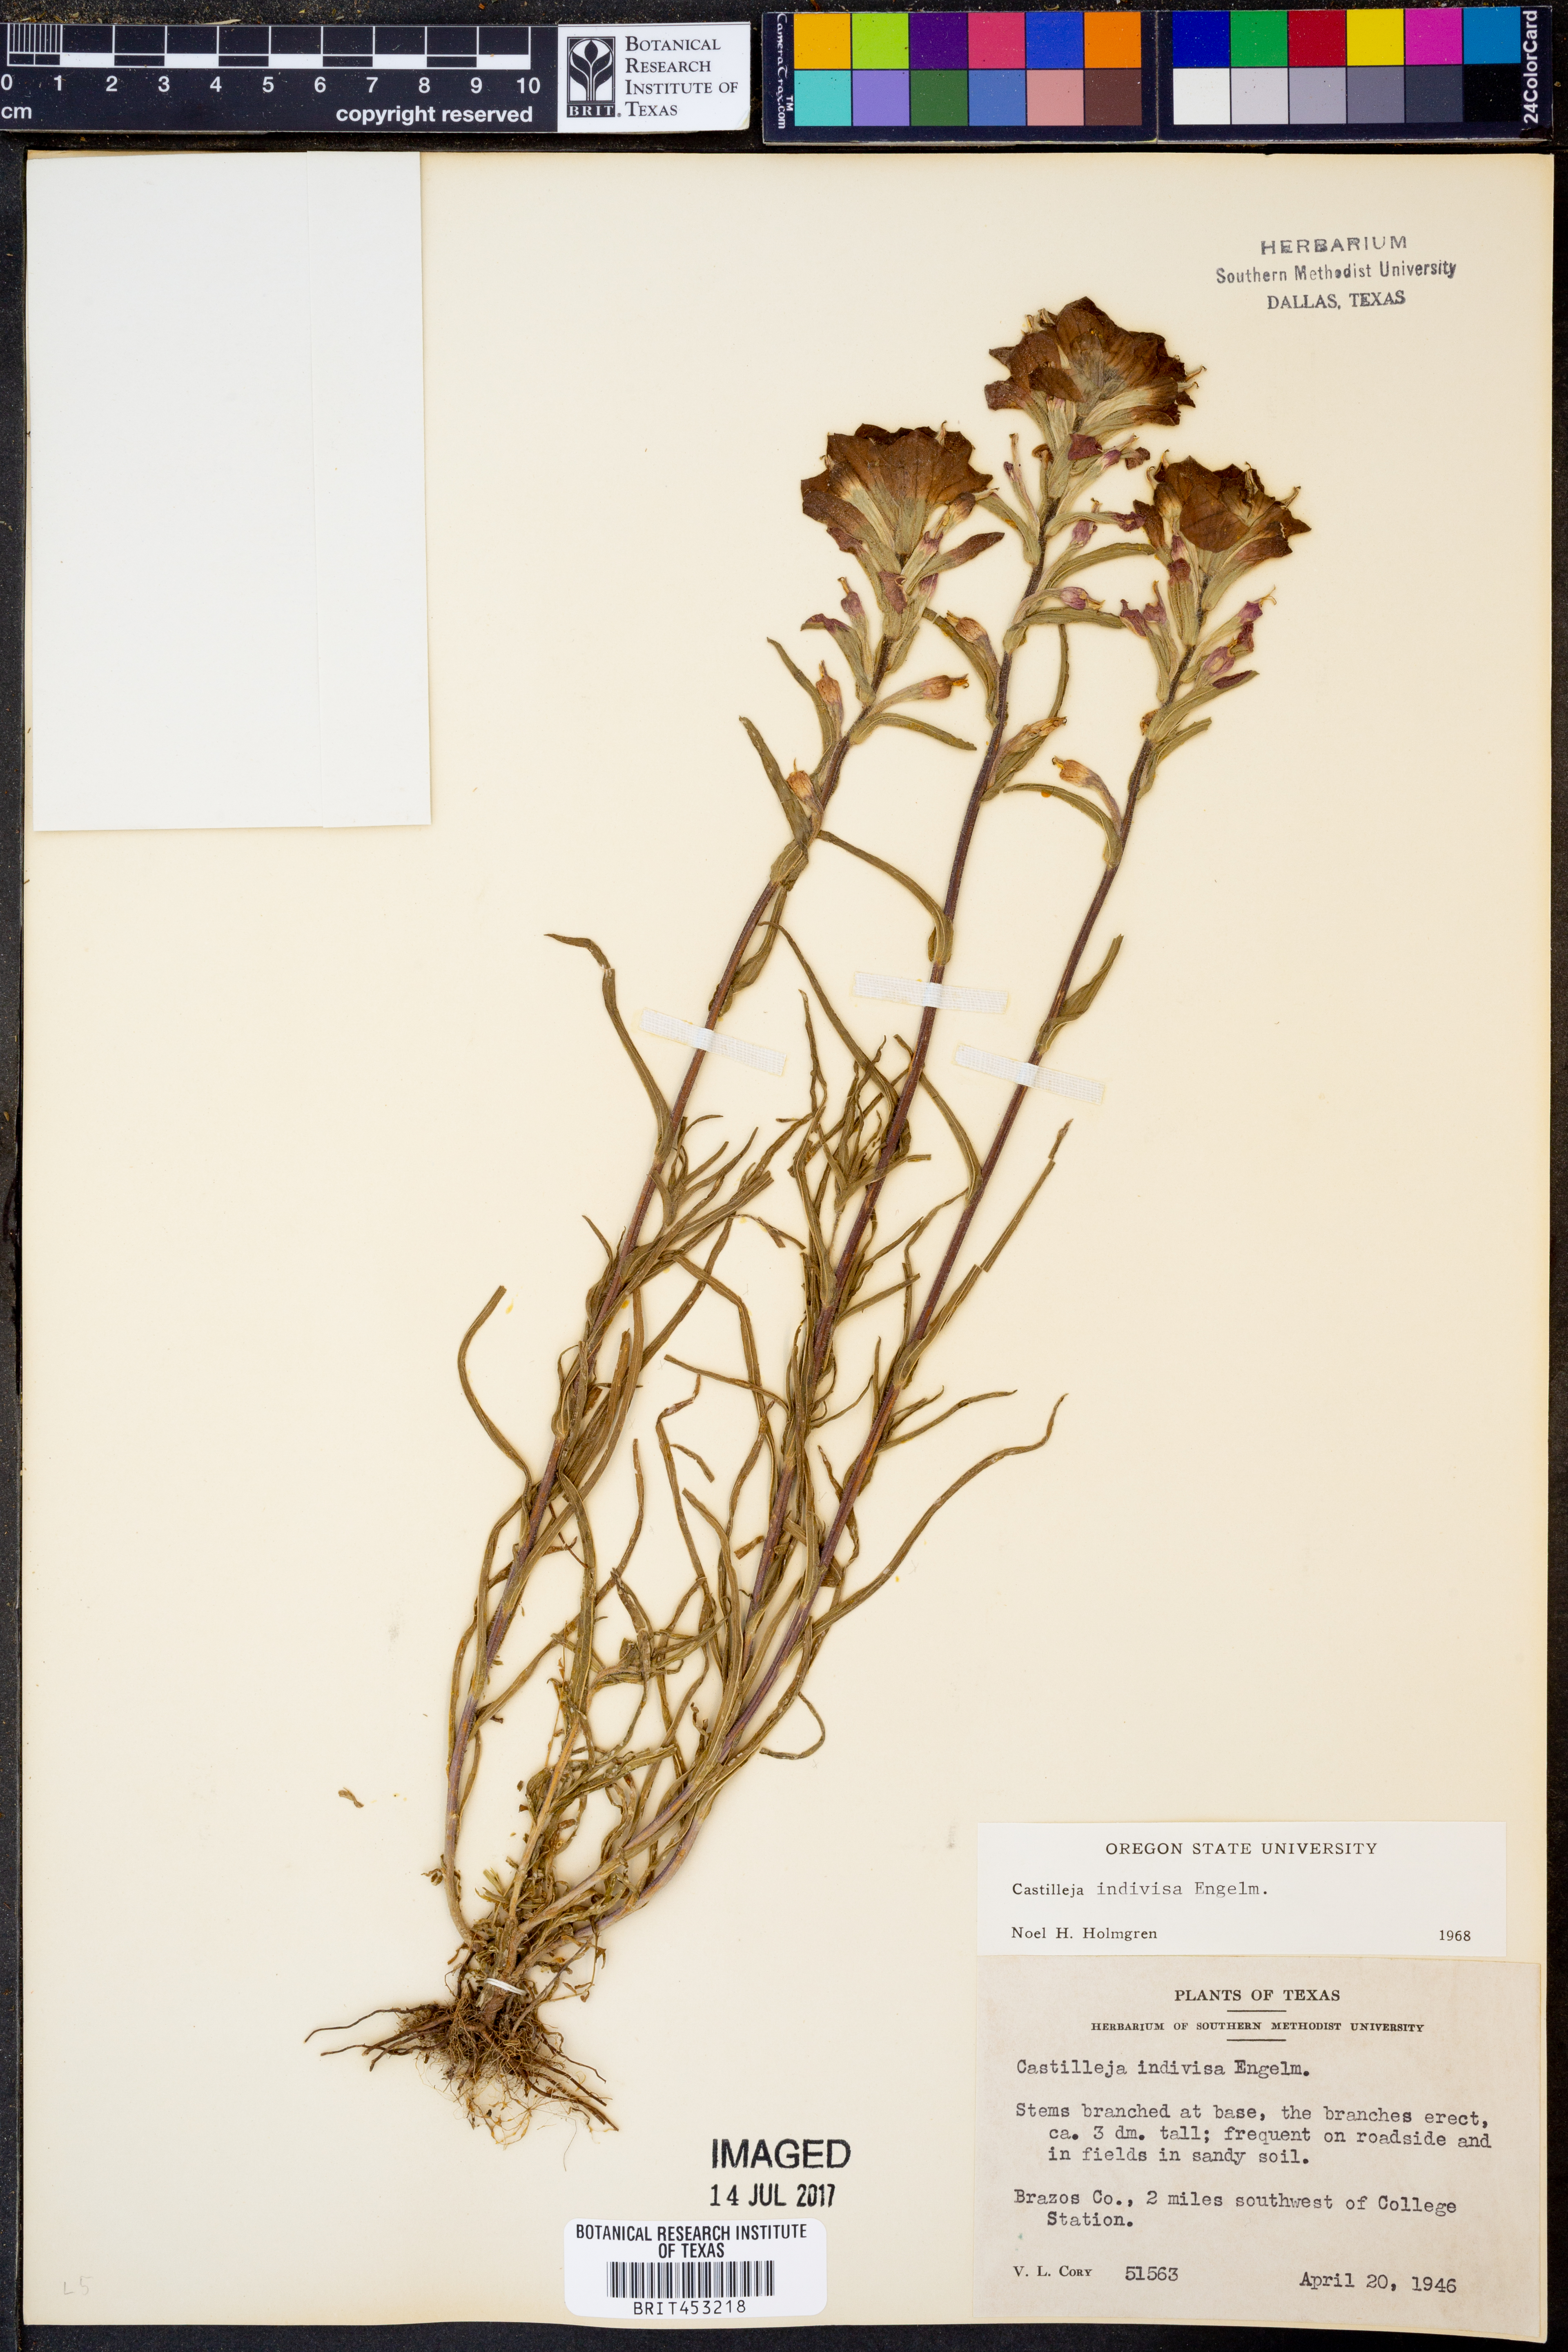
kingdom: Plantae
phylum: Tracheophyta
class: Magnoliopsida
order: Lamiales
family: Orobanchaceae
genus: Castilleja
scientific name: Castilleja indivisa
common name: Texas paintbrush
